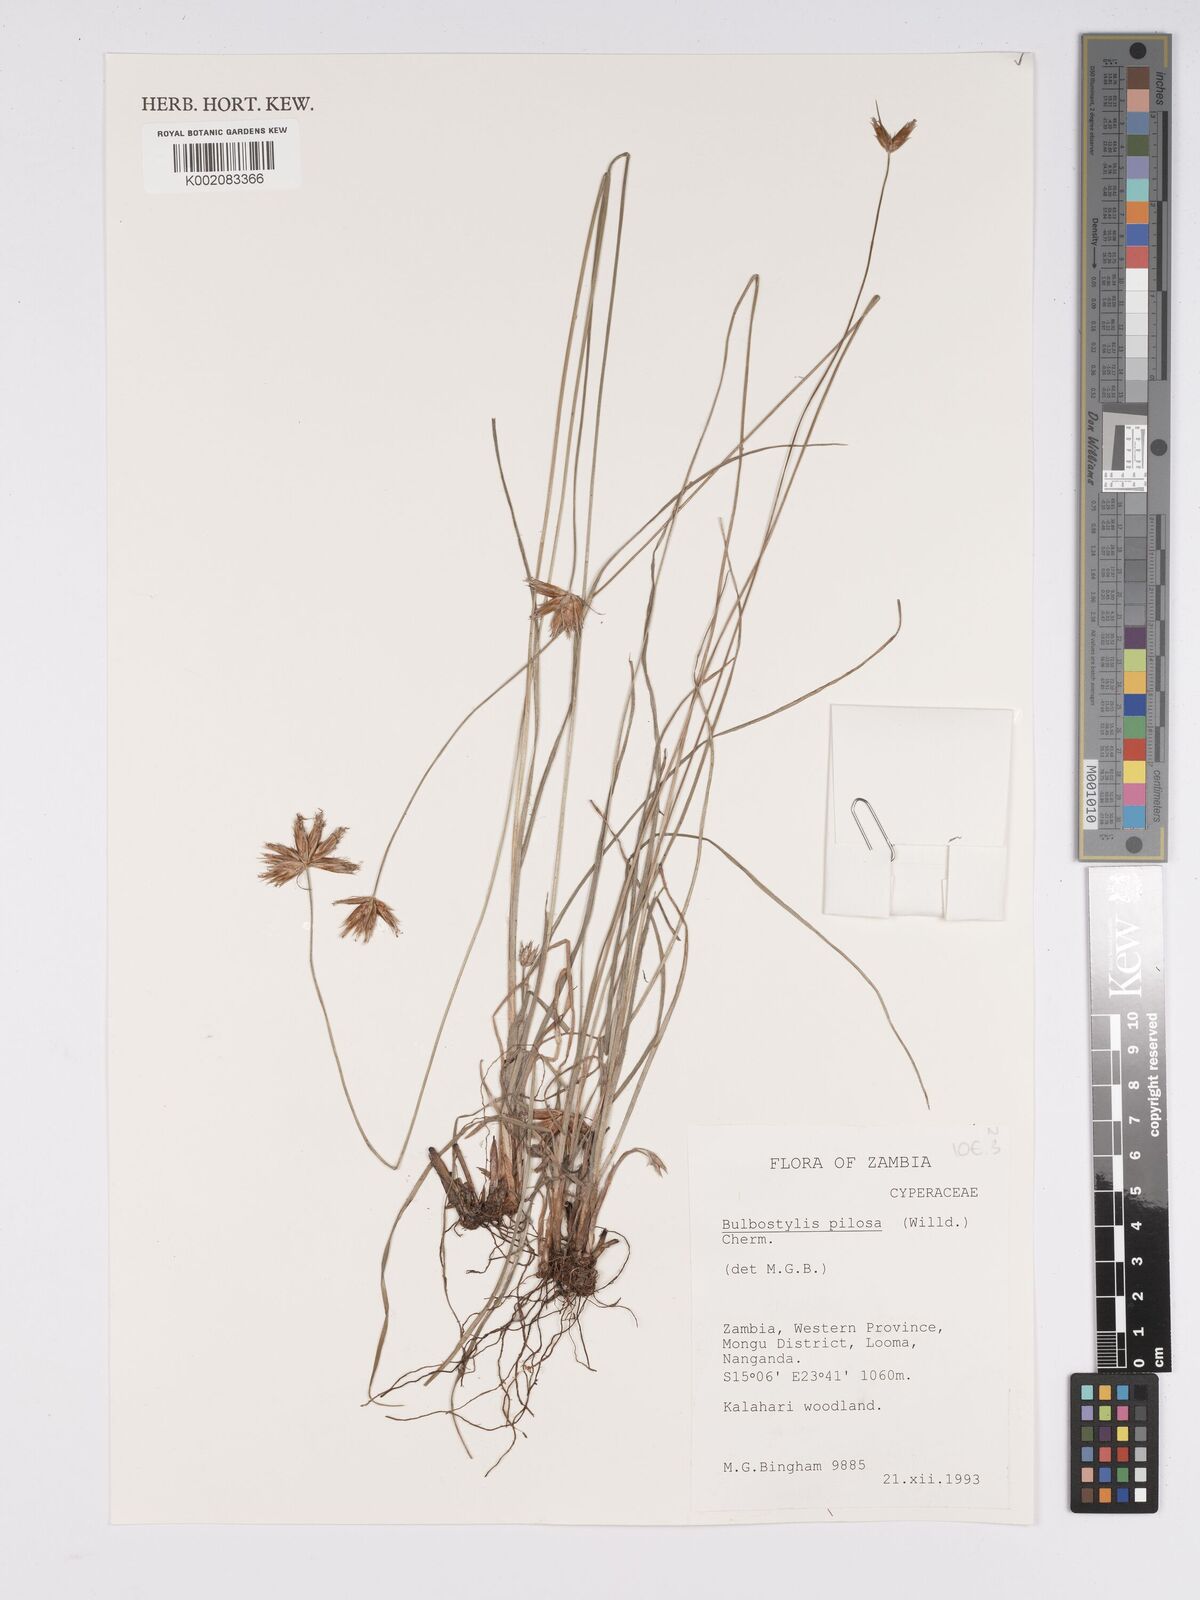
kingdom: Plantae
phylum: Tracheophyta
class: Liliopsida
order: Poales
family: Cyperaceae
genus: Bulbostylis
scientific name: Bulbostylis pilosa
